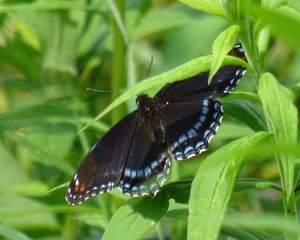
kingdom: Animalia
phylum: Arthropoda
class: Insecta
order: Lepidoptera
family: Nymphalidae
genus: Limenitis
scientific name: Limenitis astyanax
